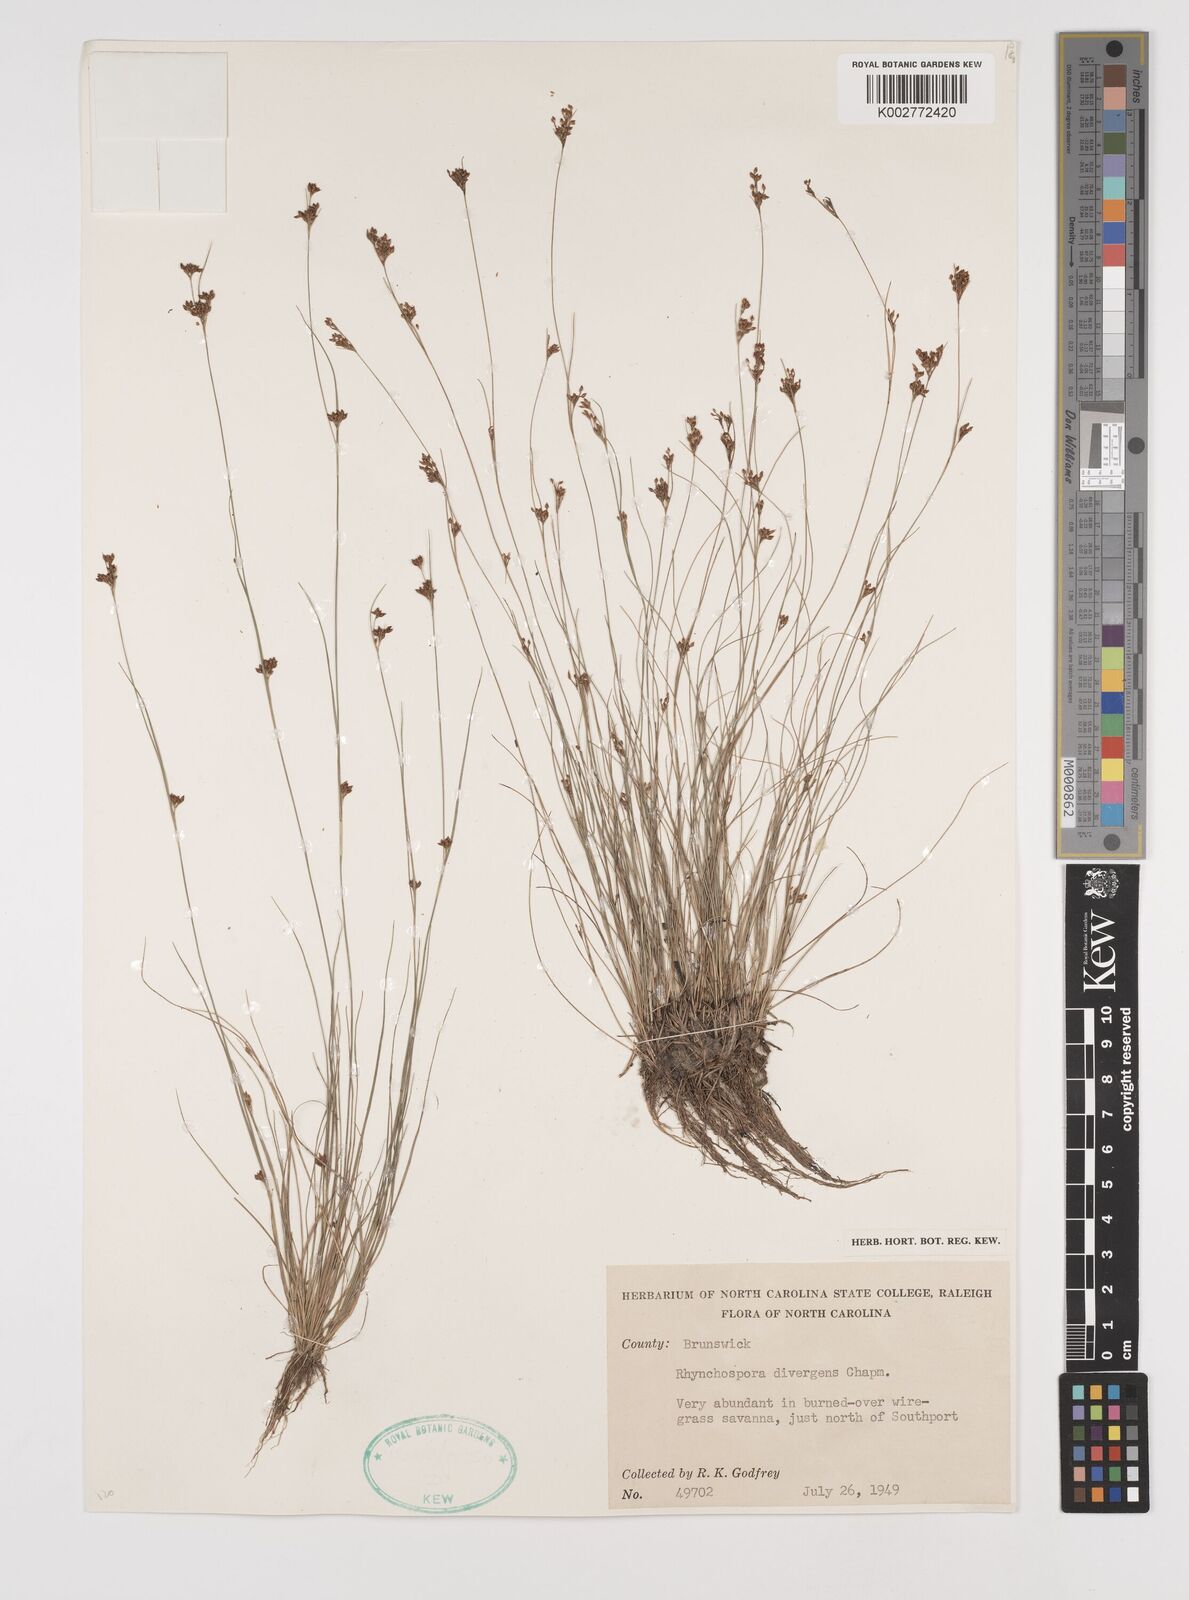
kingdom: Plantae
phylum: Tracheophyta
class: Liliopsida
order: Poales
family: Cyperaceae
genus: Rhynchospora
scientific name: Rhynchospora divergens
